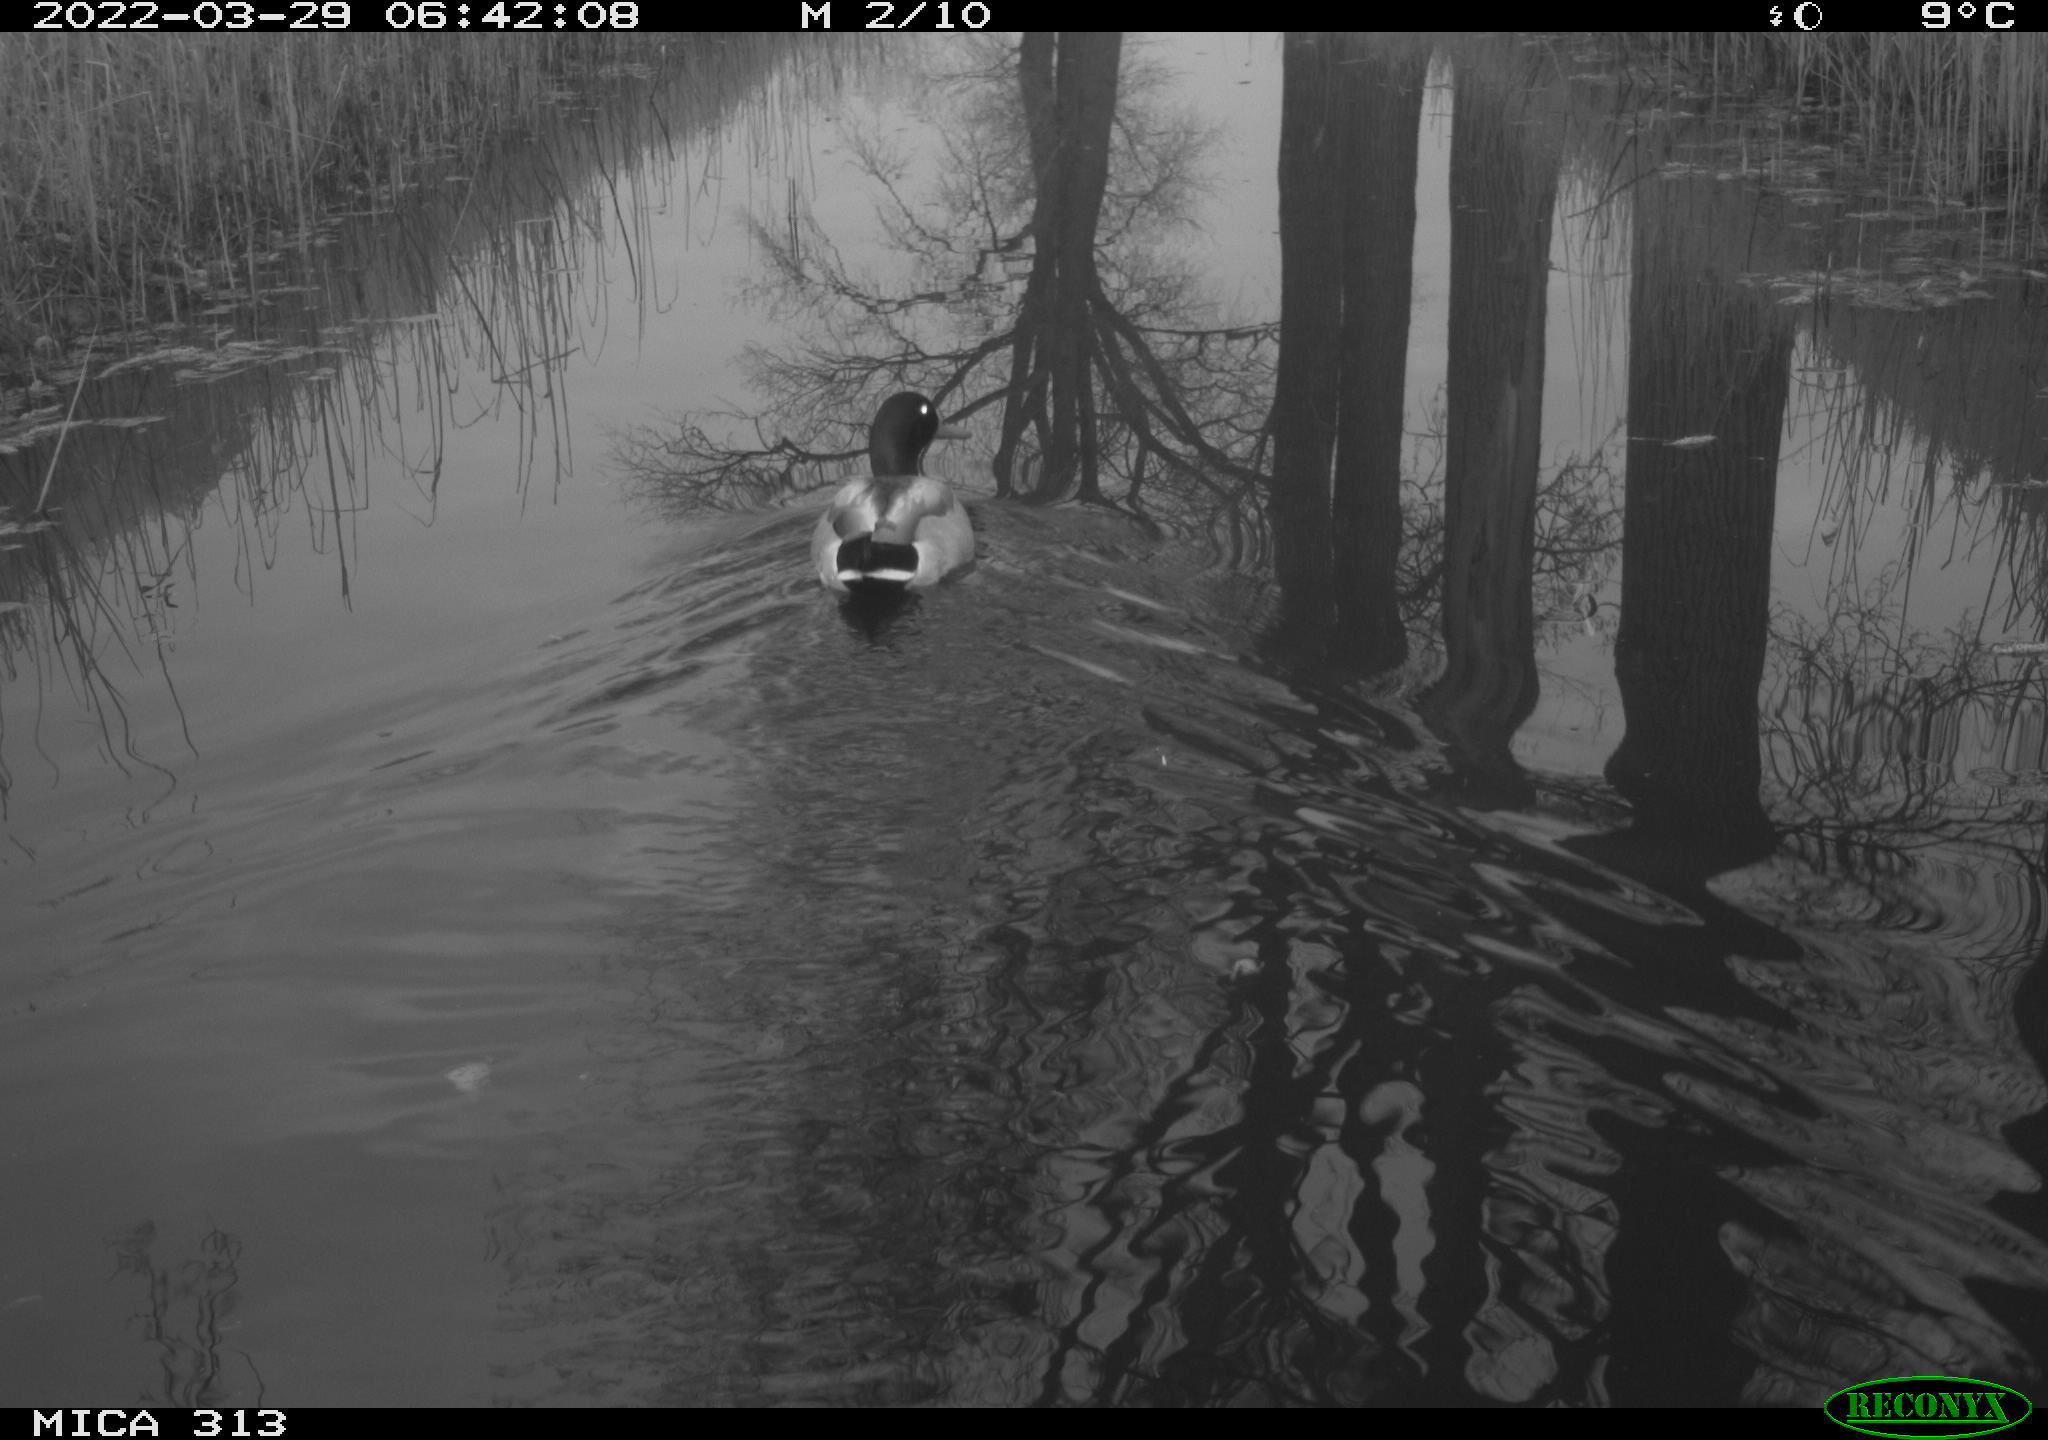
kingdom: Animalia
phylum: Chordata
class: Aves
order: Anseriformes
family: Anatidae
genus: Anas
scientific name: Anas platyrhynchos
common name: Mallard
